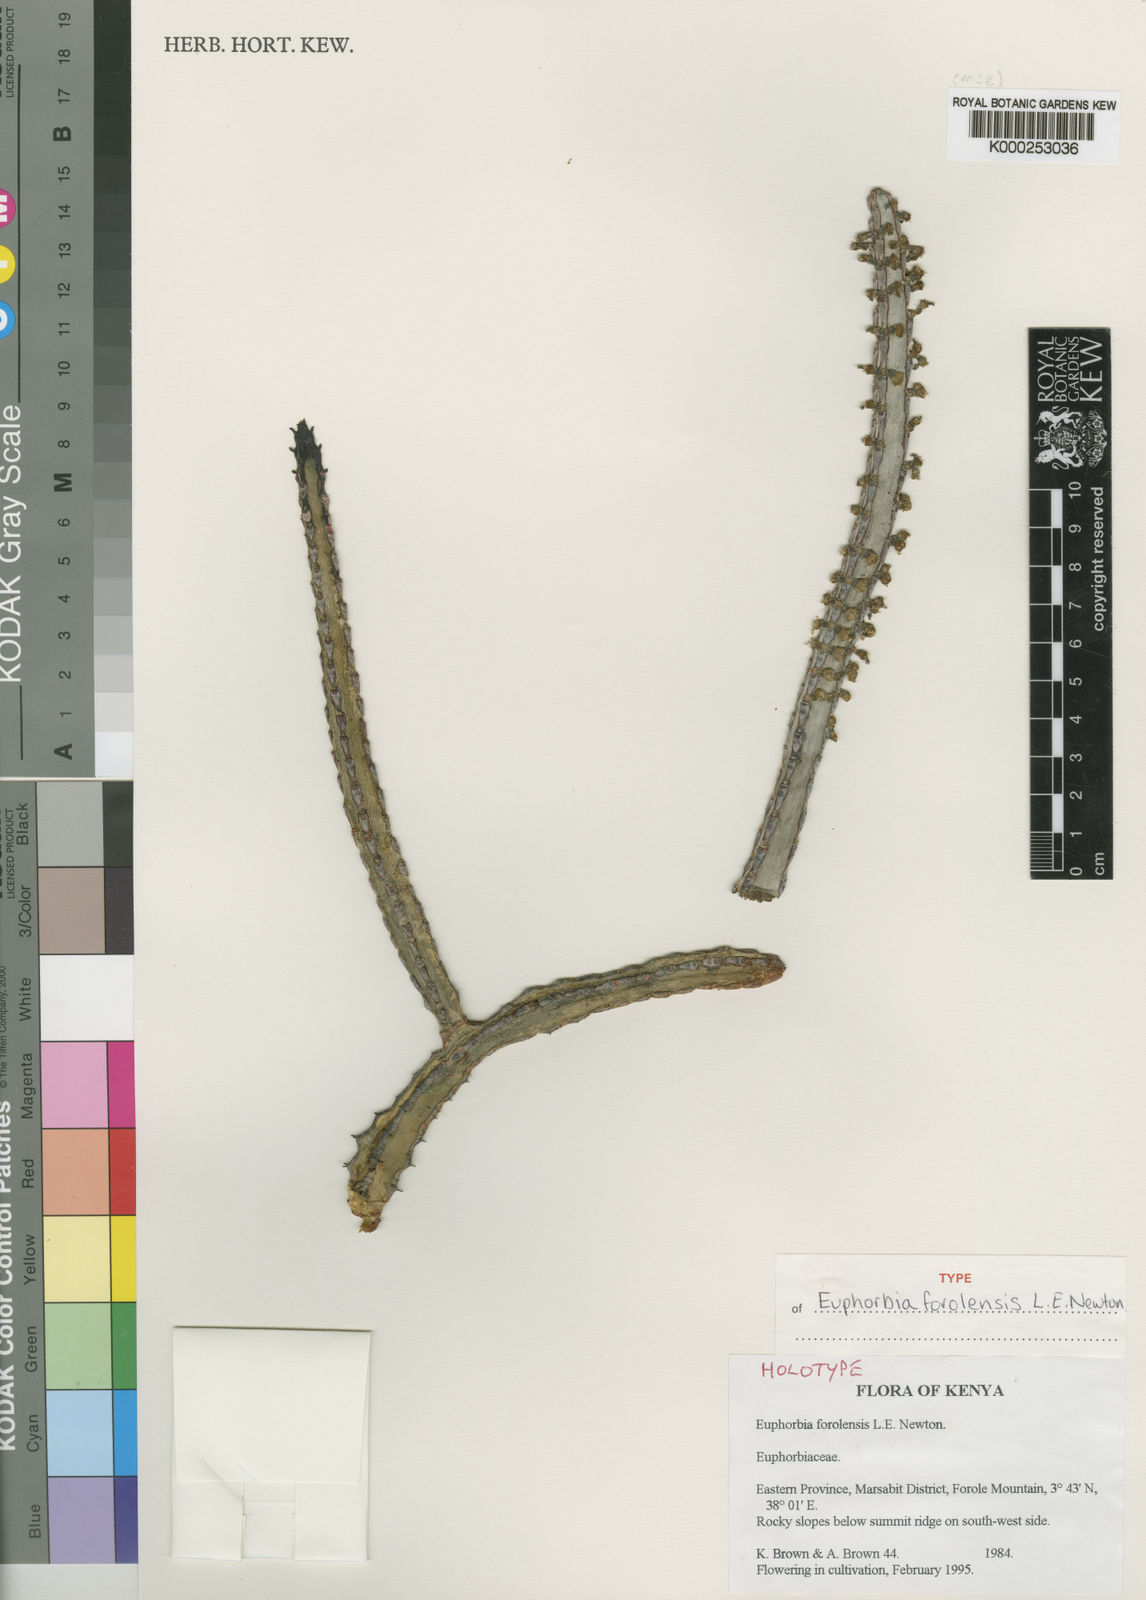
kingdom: Plantae
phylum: Tracheophyta
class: Magnoliopsida
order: Malpighiales
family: Euphorbiaceae
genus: Euphorbia
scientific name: Euphorbia forolensis
